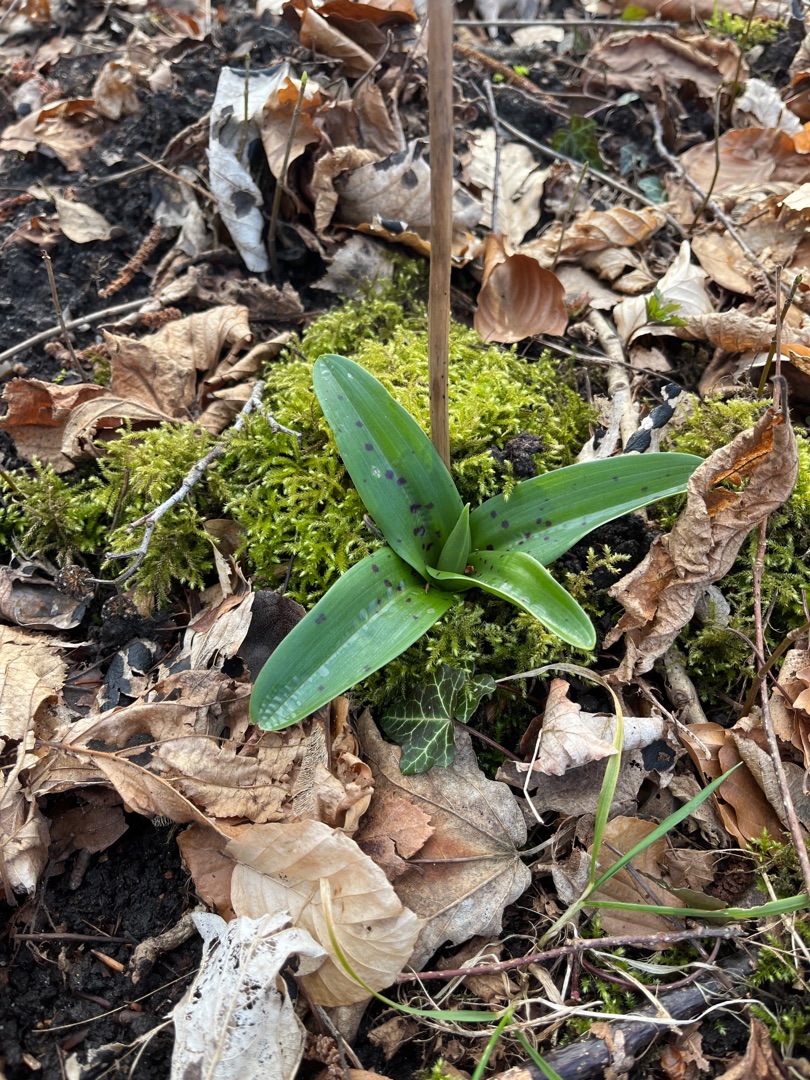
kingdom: Plantae
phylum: Tracheophyta
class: Liliopsida
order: Asparagales
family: Orchidaceae
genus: Orchis
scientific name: Orchis mascula
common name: Tyndakset gøgeurt
